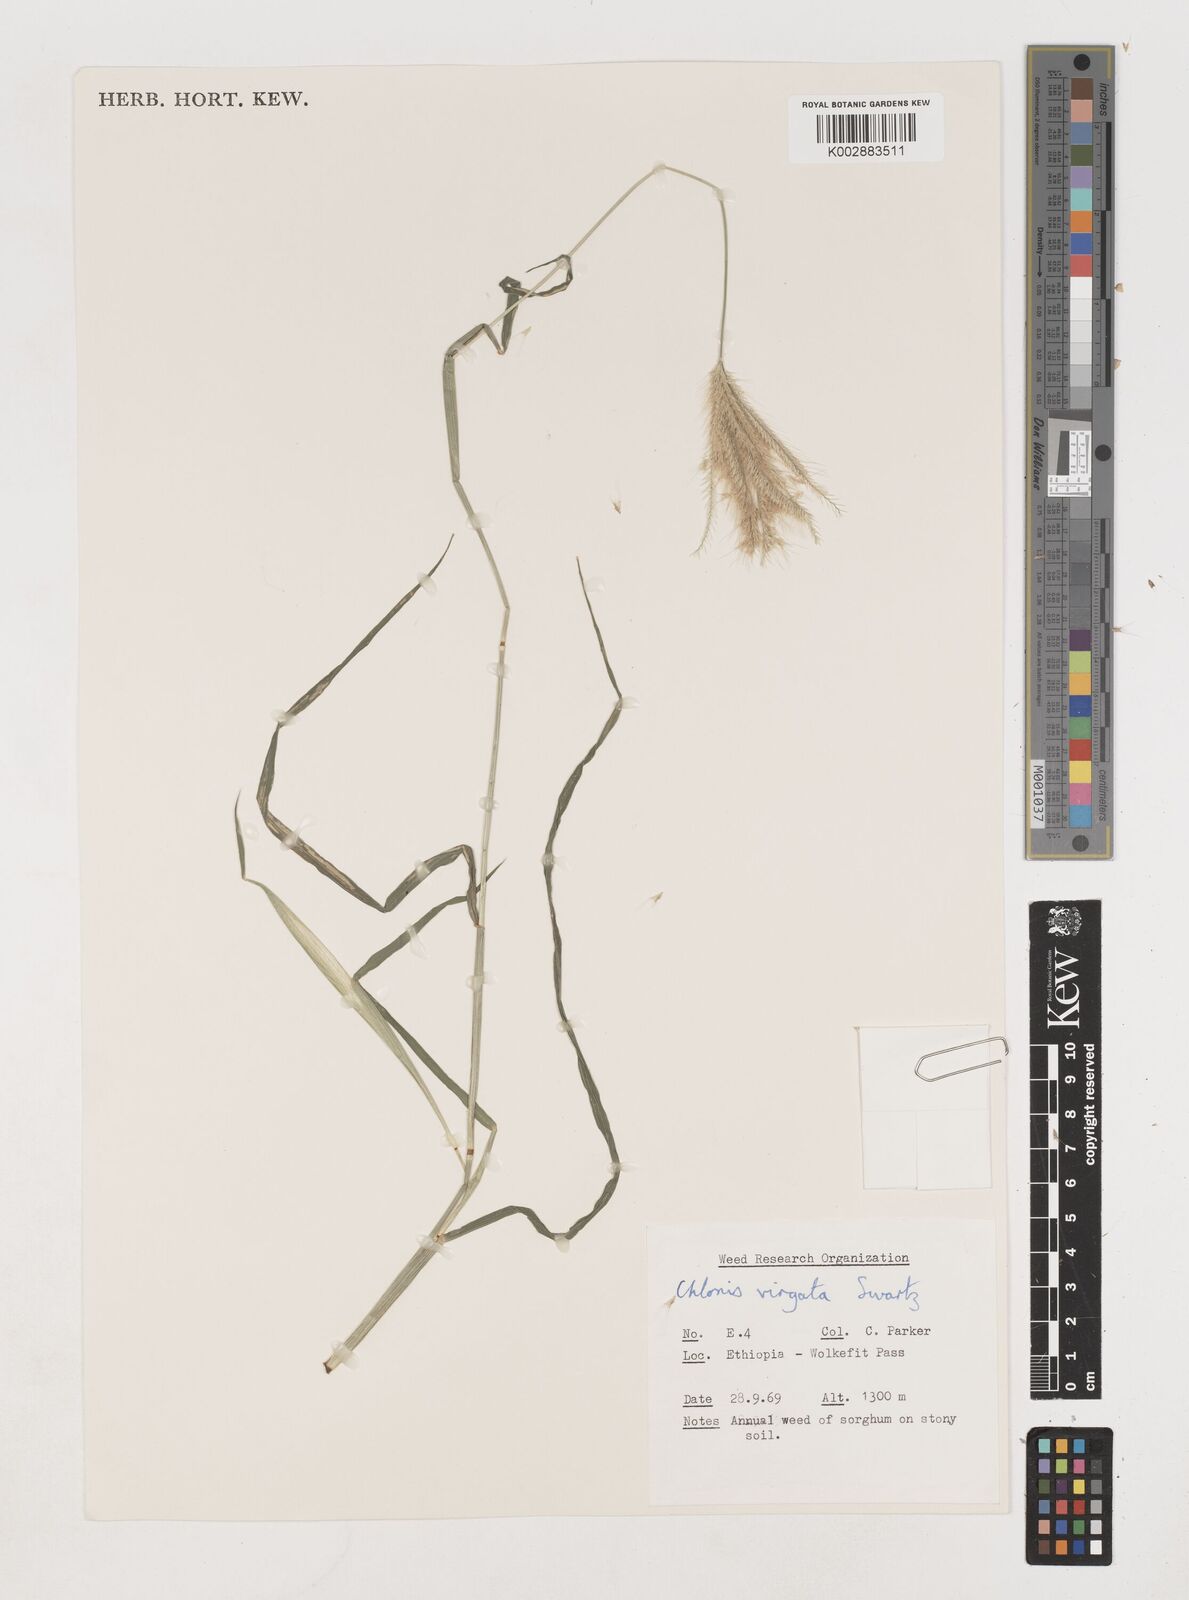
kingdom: Plantae
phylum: Tracheophyta
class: Liliopsida
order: Poales
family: Poaceae
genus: Chloris
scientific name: Chloris virgata
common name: Feathery rhodes-grass
